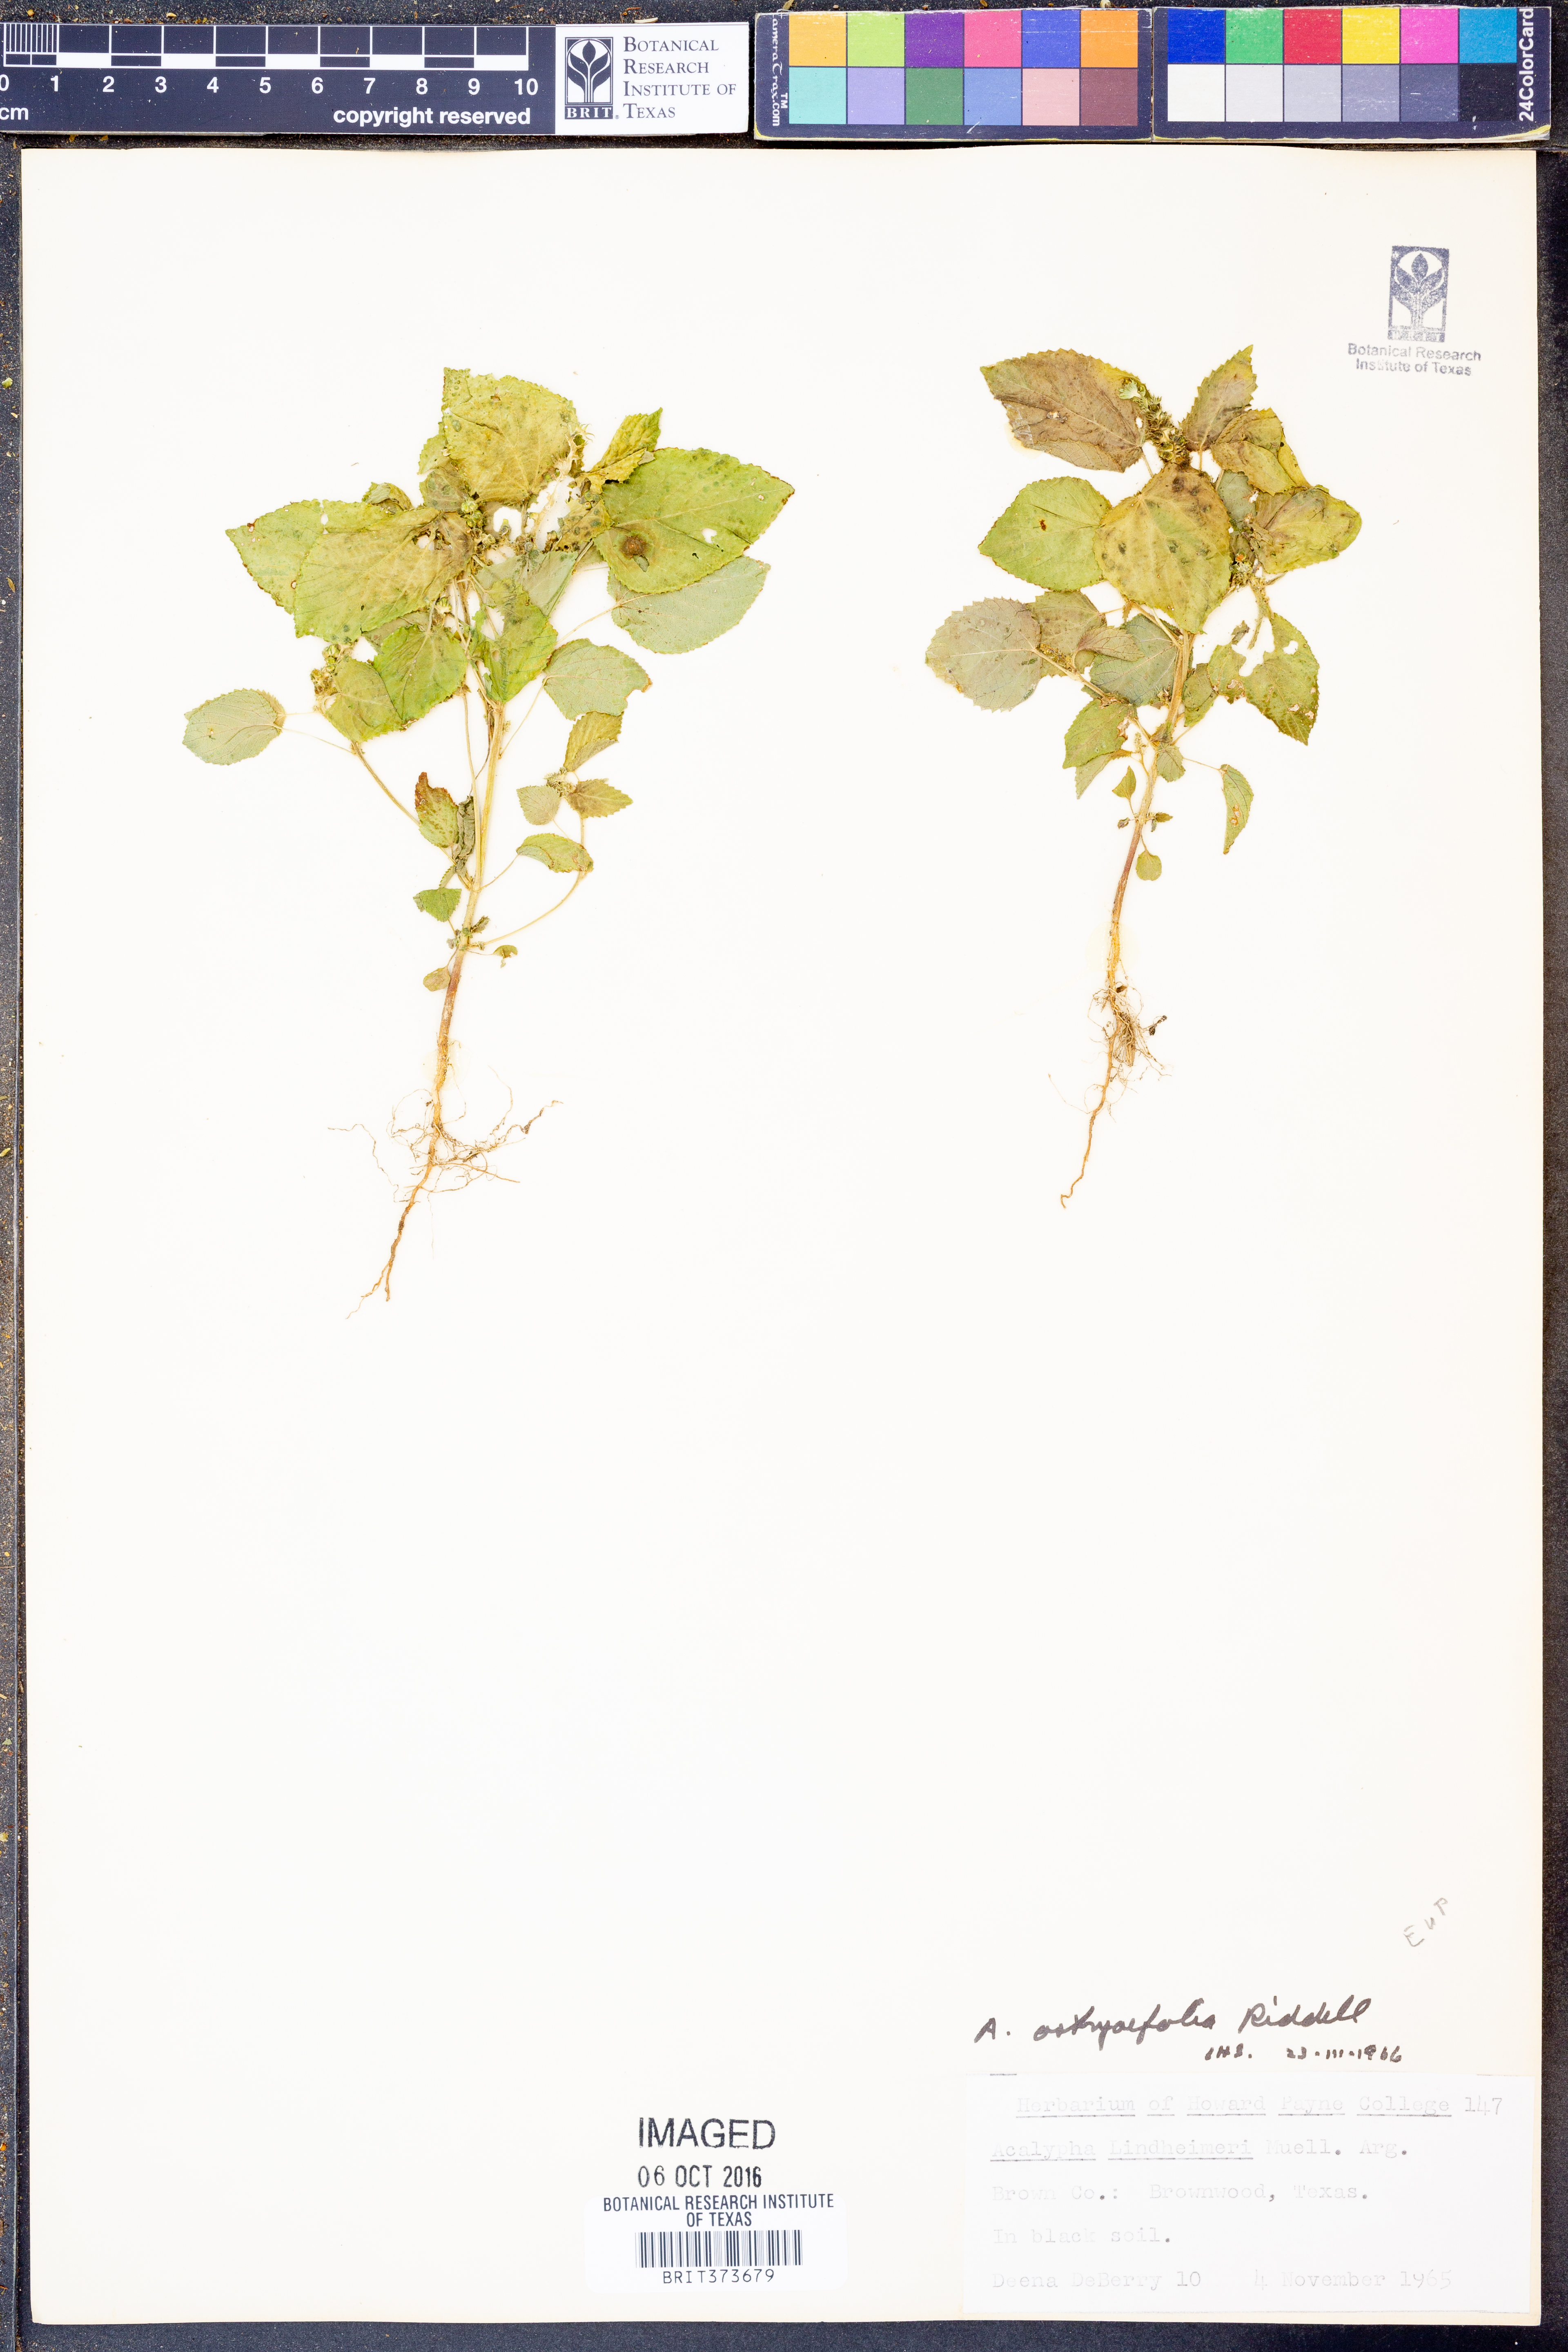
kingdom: Plantae
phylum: Tracheophyta
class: Magnoliopsida
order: Malpighiales
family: Euphorbiaceae
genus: Acalypha
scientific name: Acalypha ostryifolia
